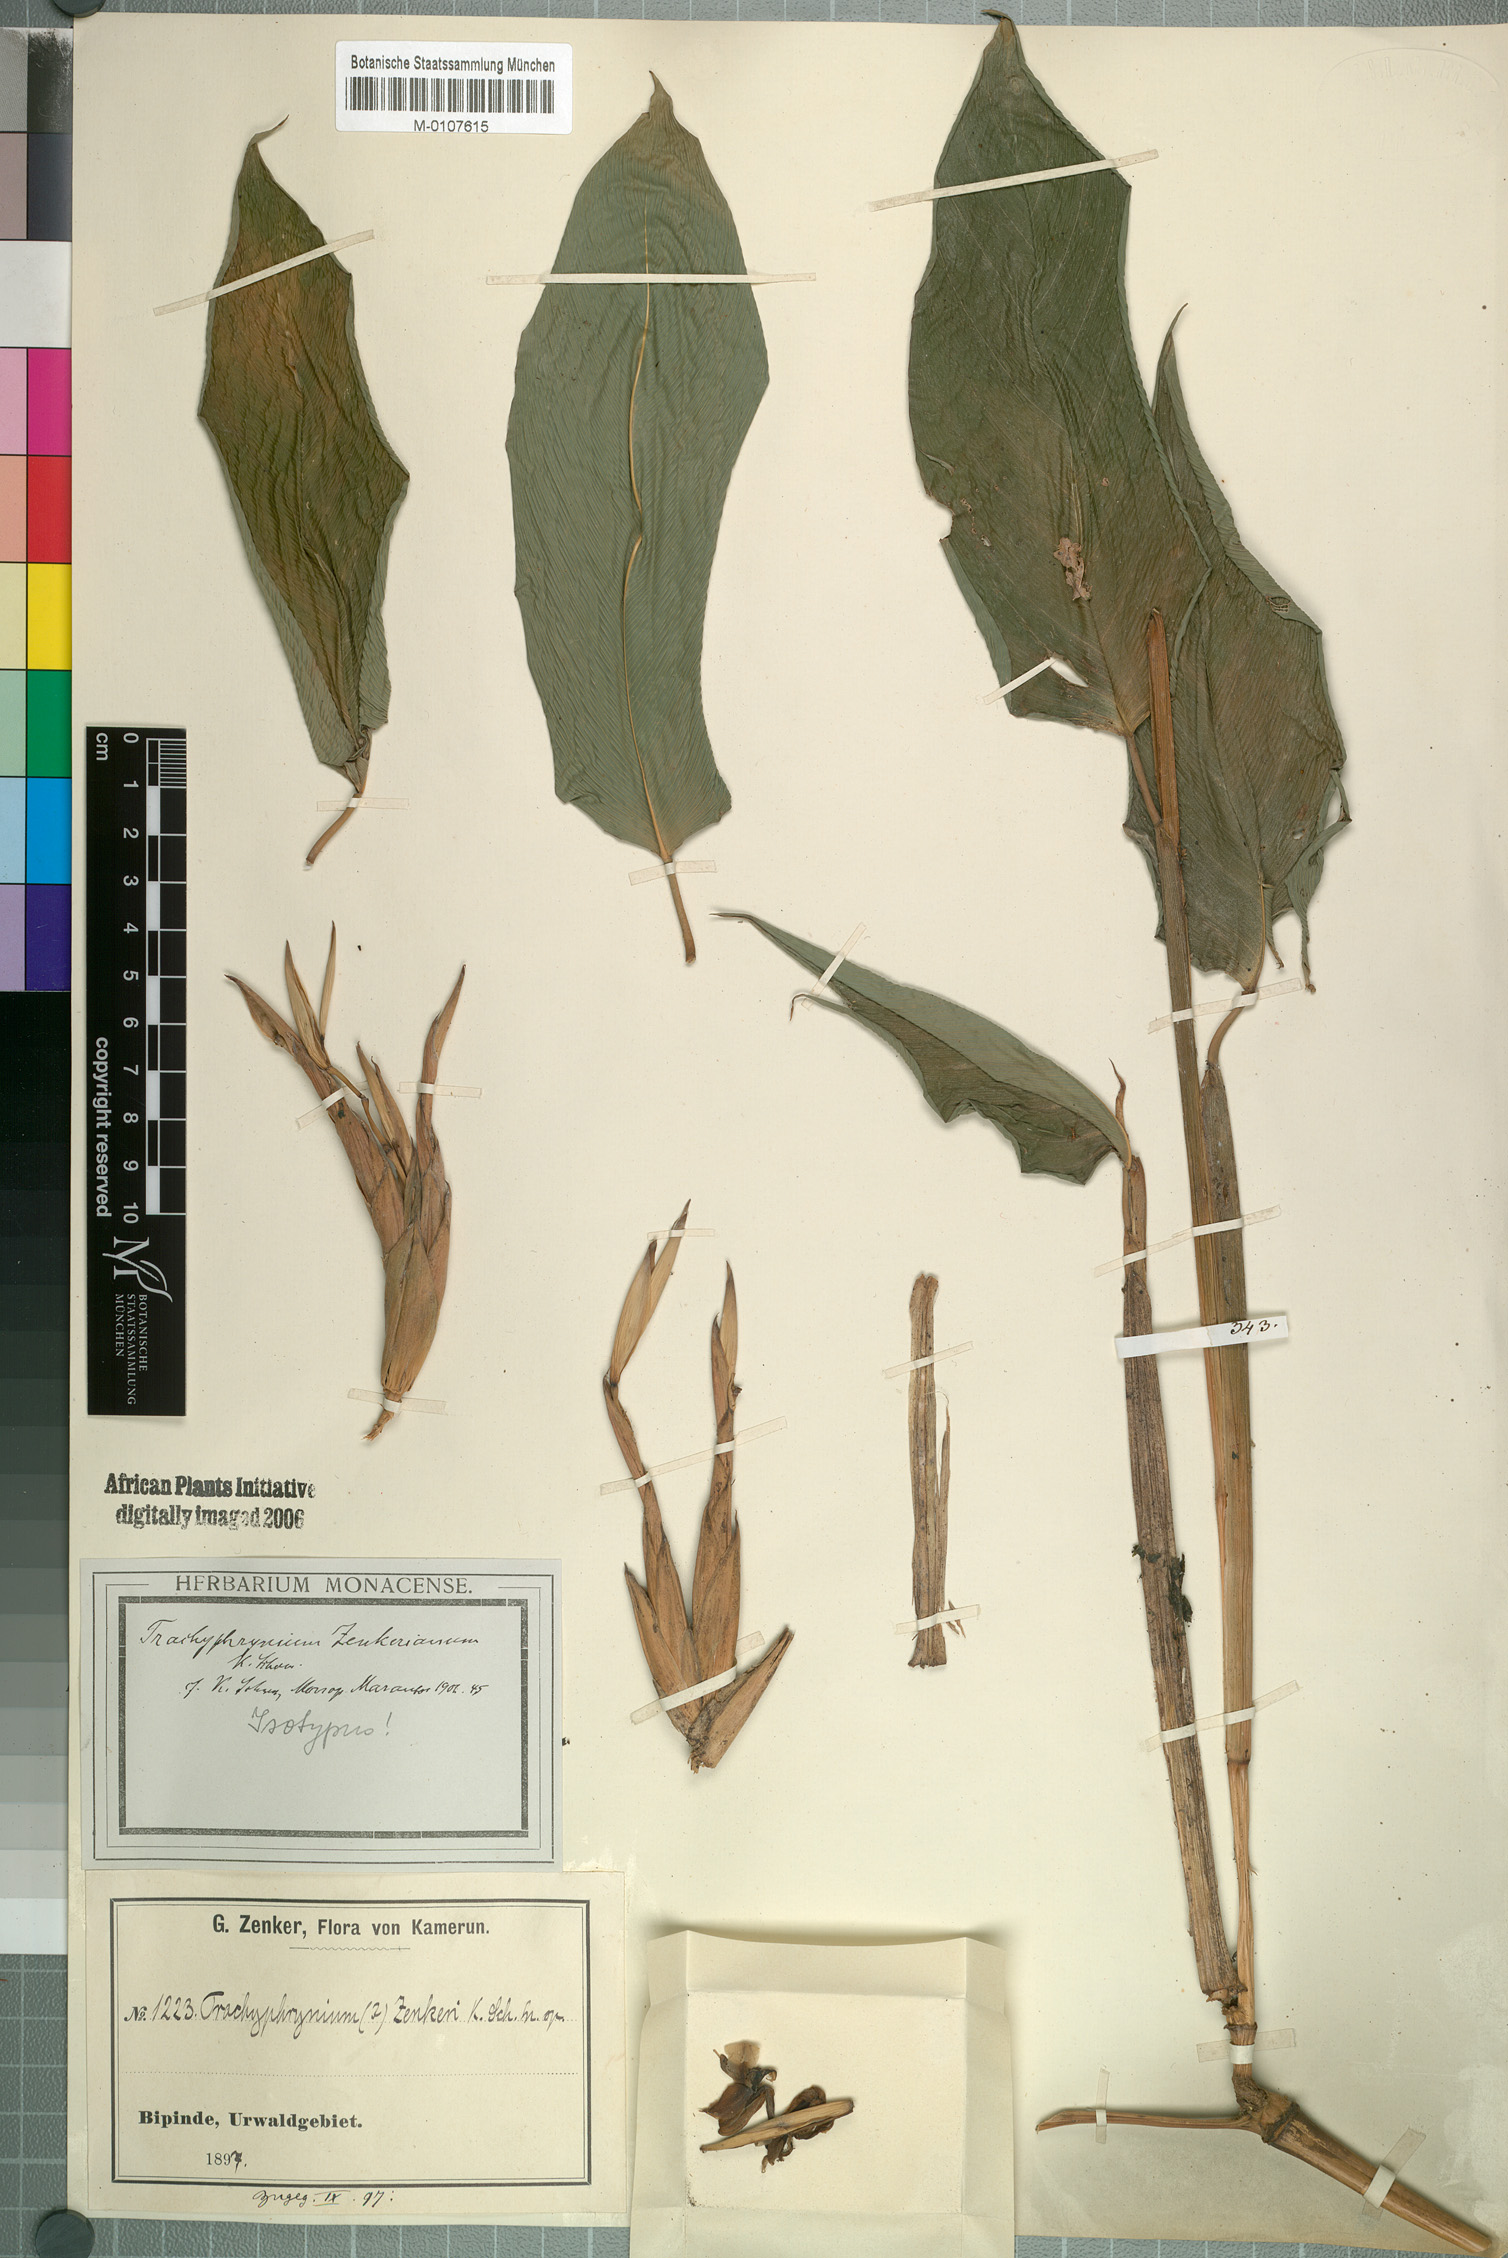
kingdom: Plantae
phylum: Tracheophyta
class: Liliopsida
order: Zingiberales
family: Marantaceae
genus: Hypselodelphys
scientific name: Hypselodelphys zenkeriana
